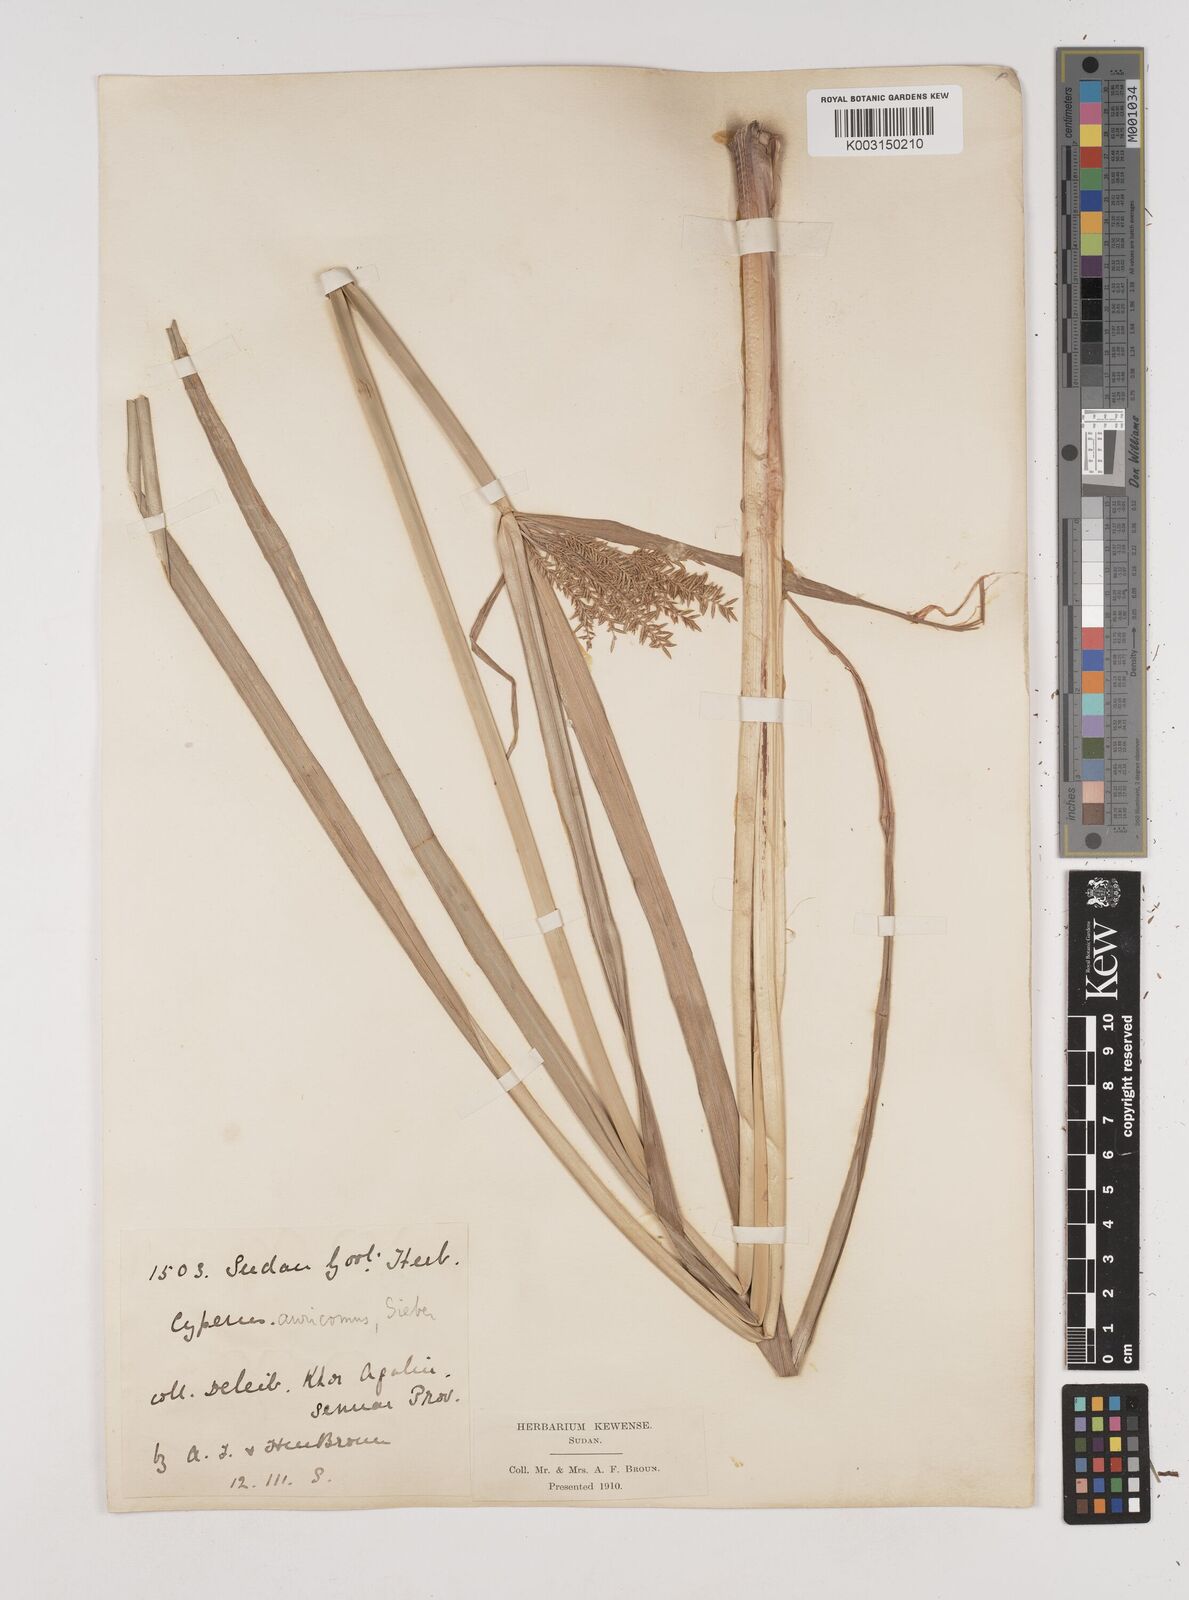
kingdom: Plantae
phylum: Tracheophyta
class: Liliopsida
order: Poales
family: Cyperaceae
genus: Cyperus
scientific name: Cyperus digitatus
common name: Finger flatsedge
